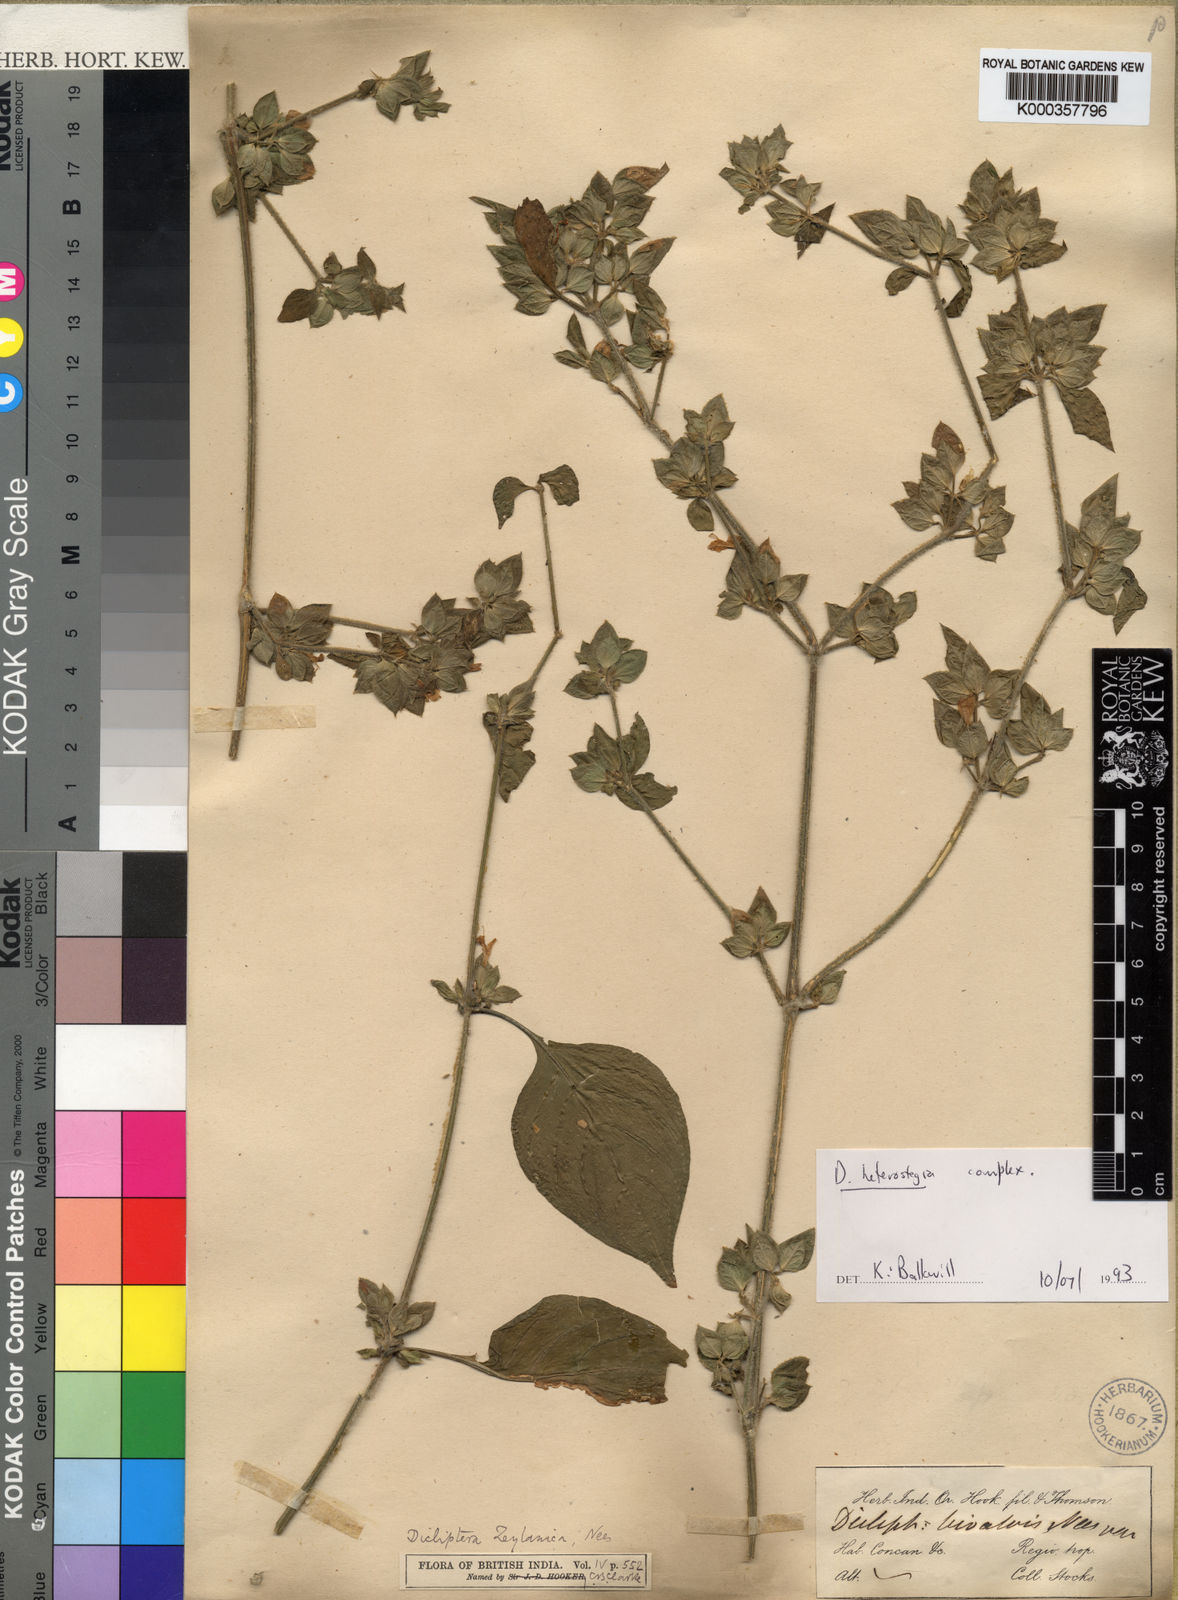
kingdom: Plantae
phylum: Tracheophyta
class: Magnoliopsida
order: Lamiales
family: Acanthaceae
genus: Dicliptera
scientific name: Dicliptera heterostegia
